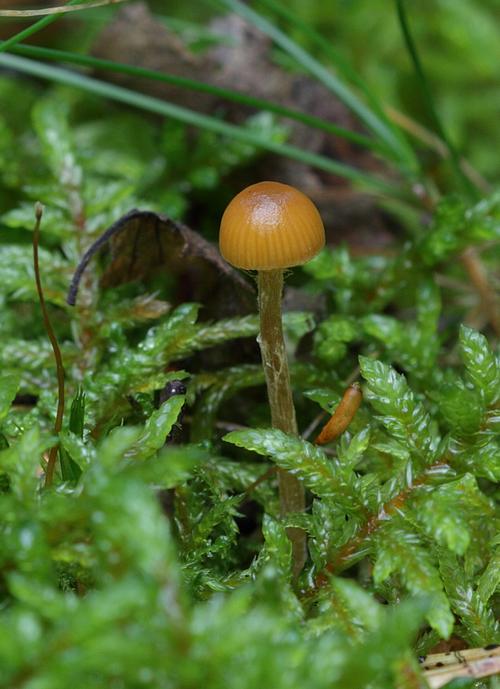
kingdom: Fungi
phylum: Basidiomycota
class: Agaricomycetes
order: Agaricales
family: Hymenogastraceae
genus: Galerina
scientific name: Galerina pumila
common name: honninggul hjelmhat
